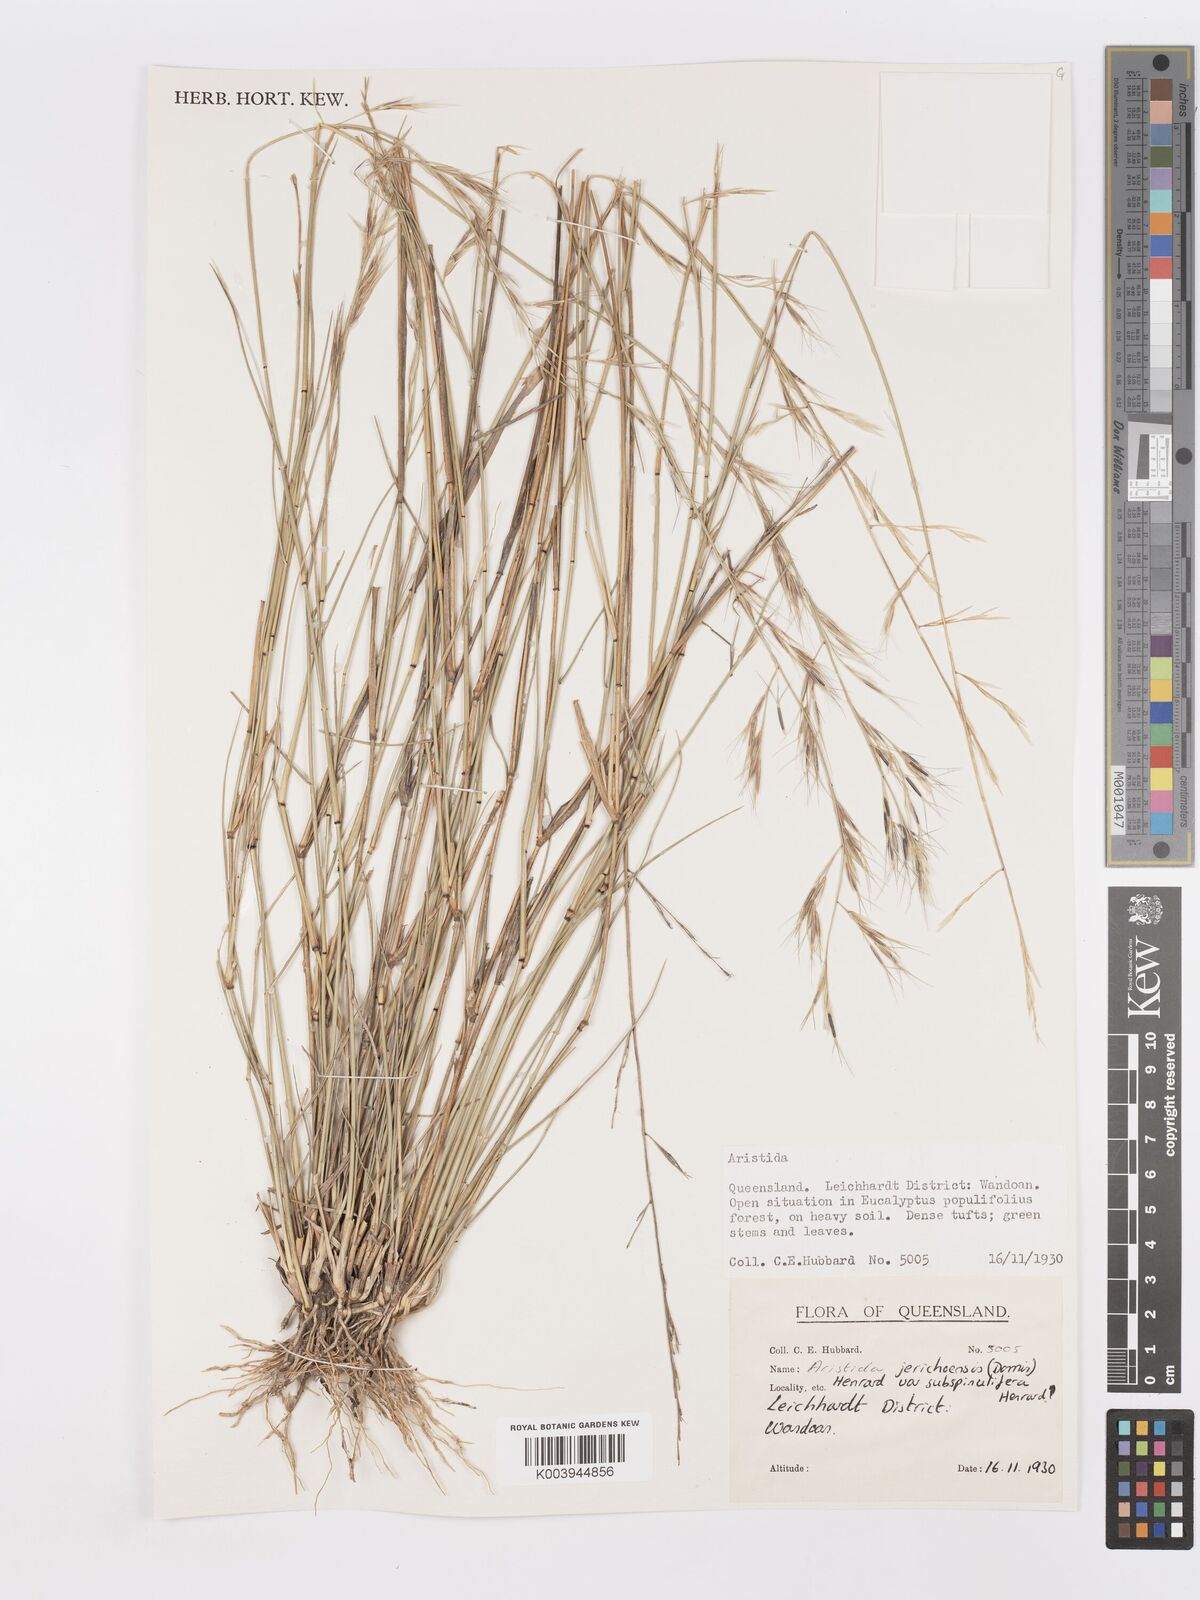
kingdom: Plantae
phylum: Tracheophyta
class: Liliopsida
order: Poales
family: Poaceae
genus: Aristida
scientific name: Aristida jerichoensis
